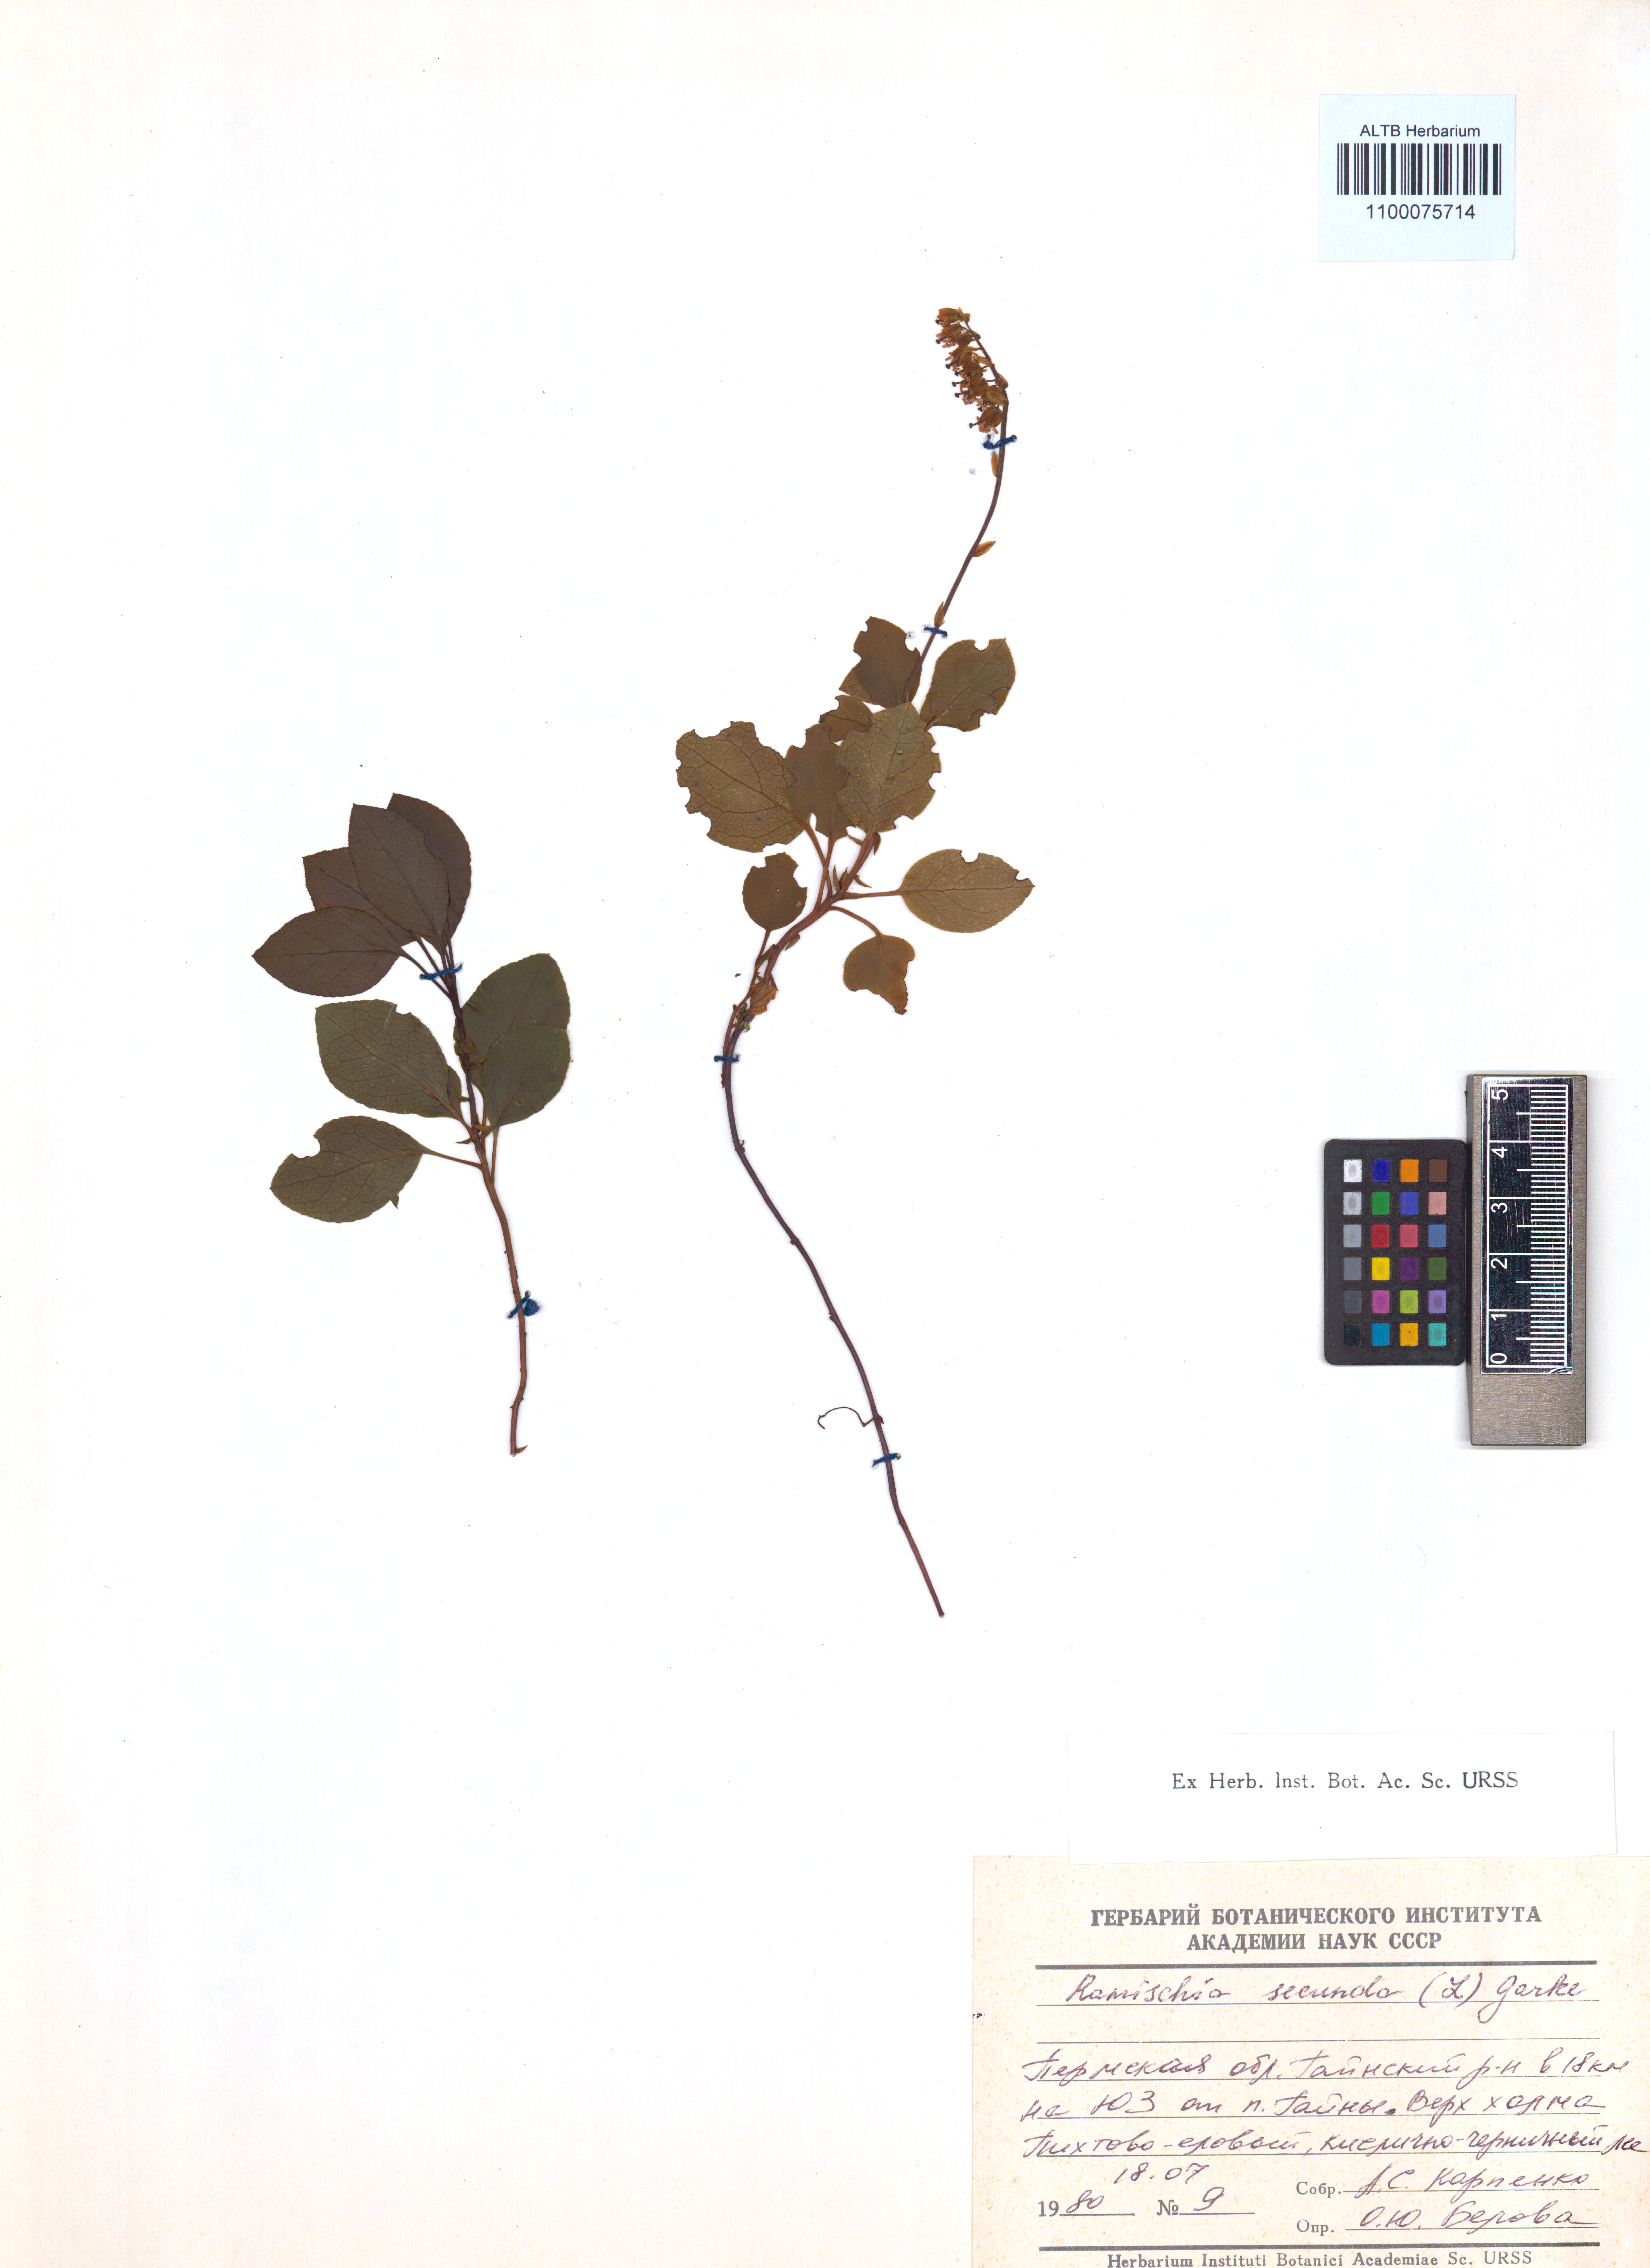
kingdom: Plantae
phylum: Tracheophyta
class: Magnoliopsida
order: Ericales
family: Ericaceae
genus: Orthilia
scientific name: Orthilia secunda
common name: One-sided orthilia
